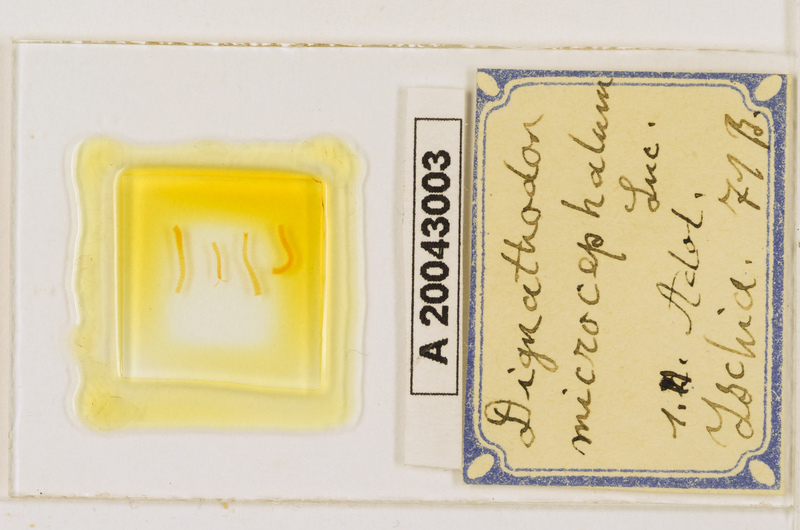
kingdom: Animalia
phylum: Arthropoda
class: Chilopoda
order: Geophilomorpha
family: Dignathodontidae
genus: Dignathodon
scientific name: Dignathodon microcephalus
